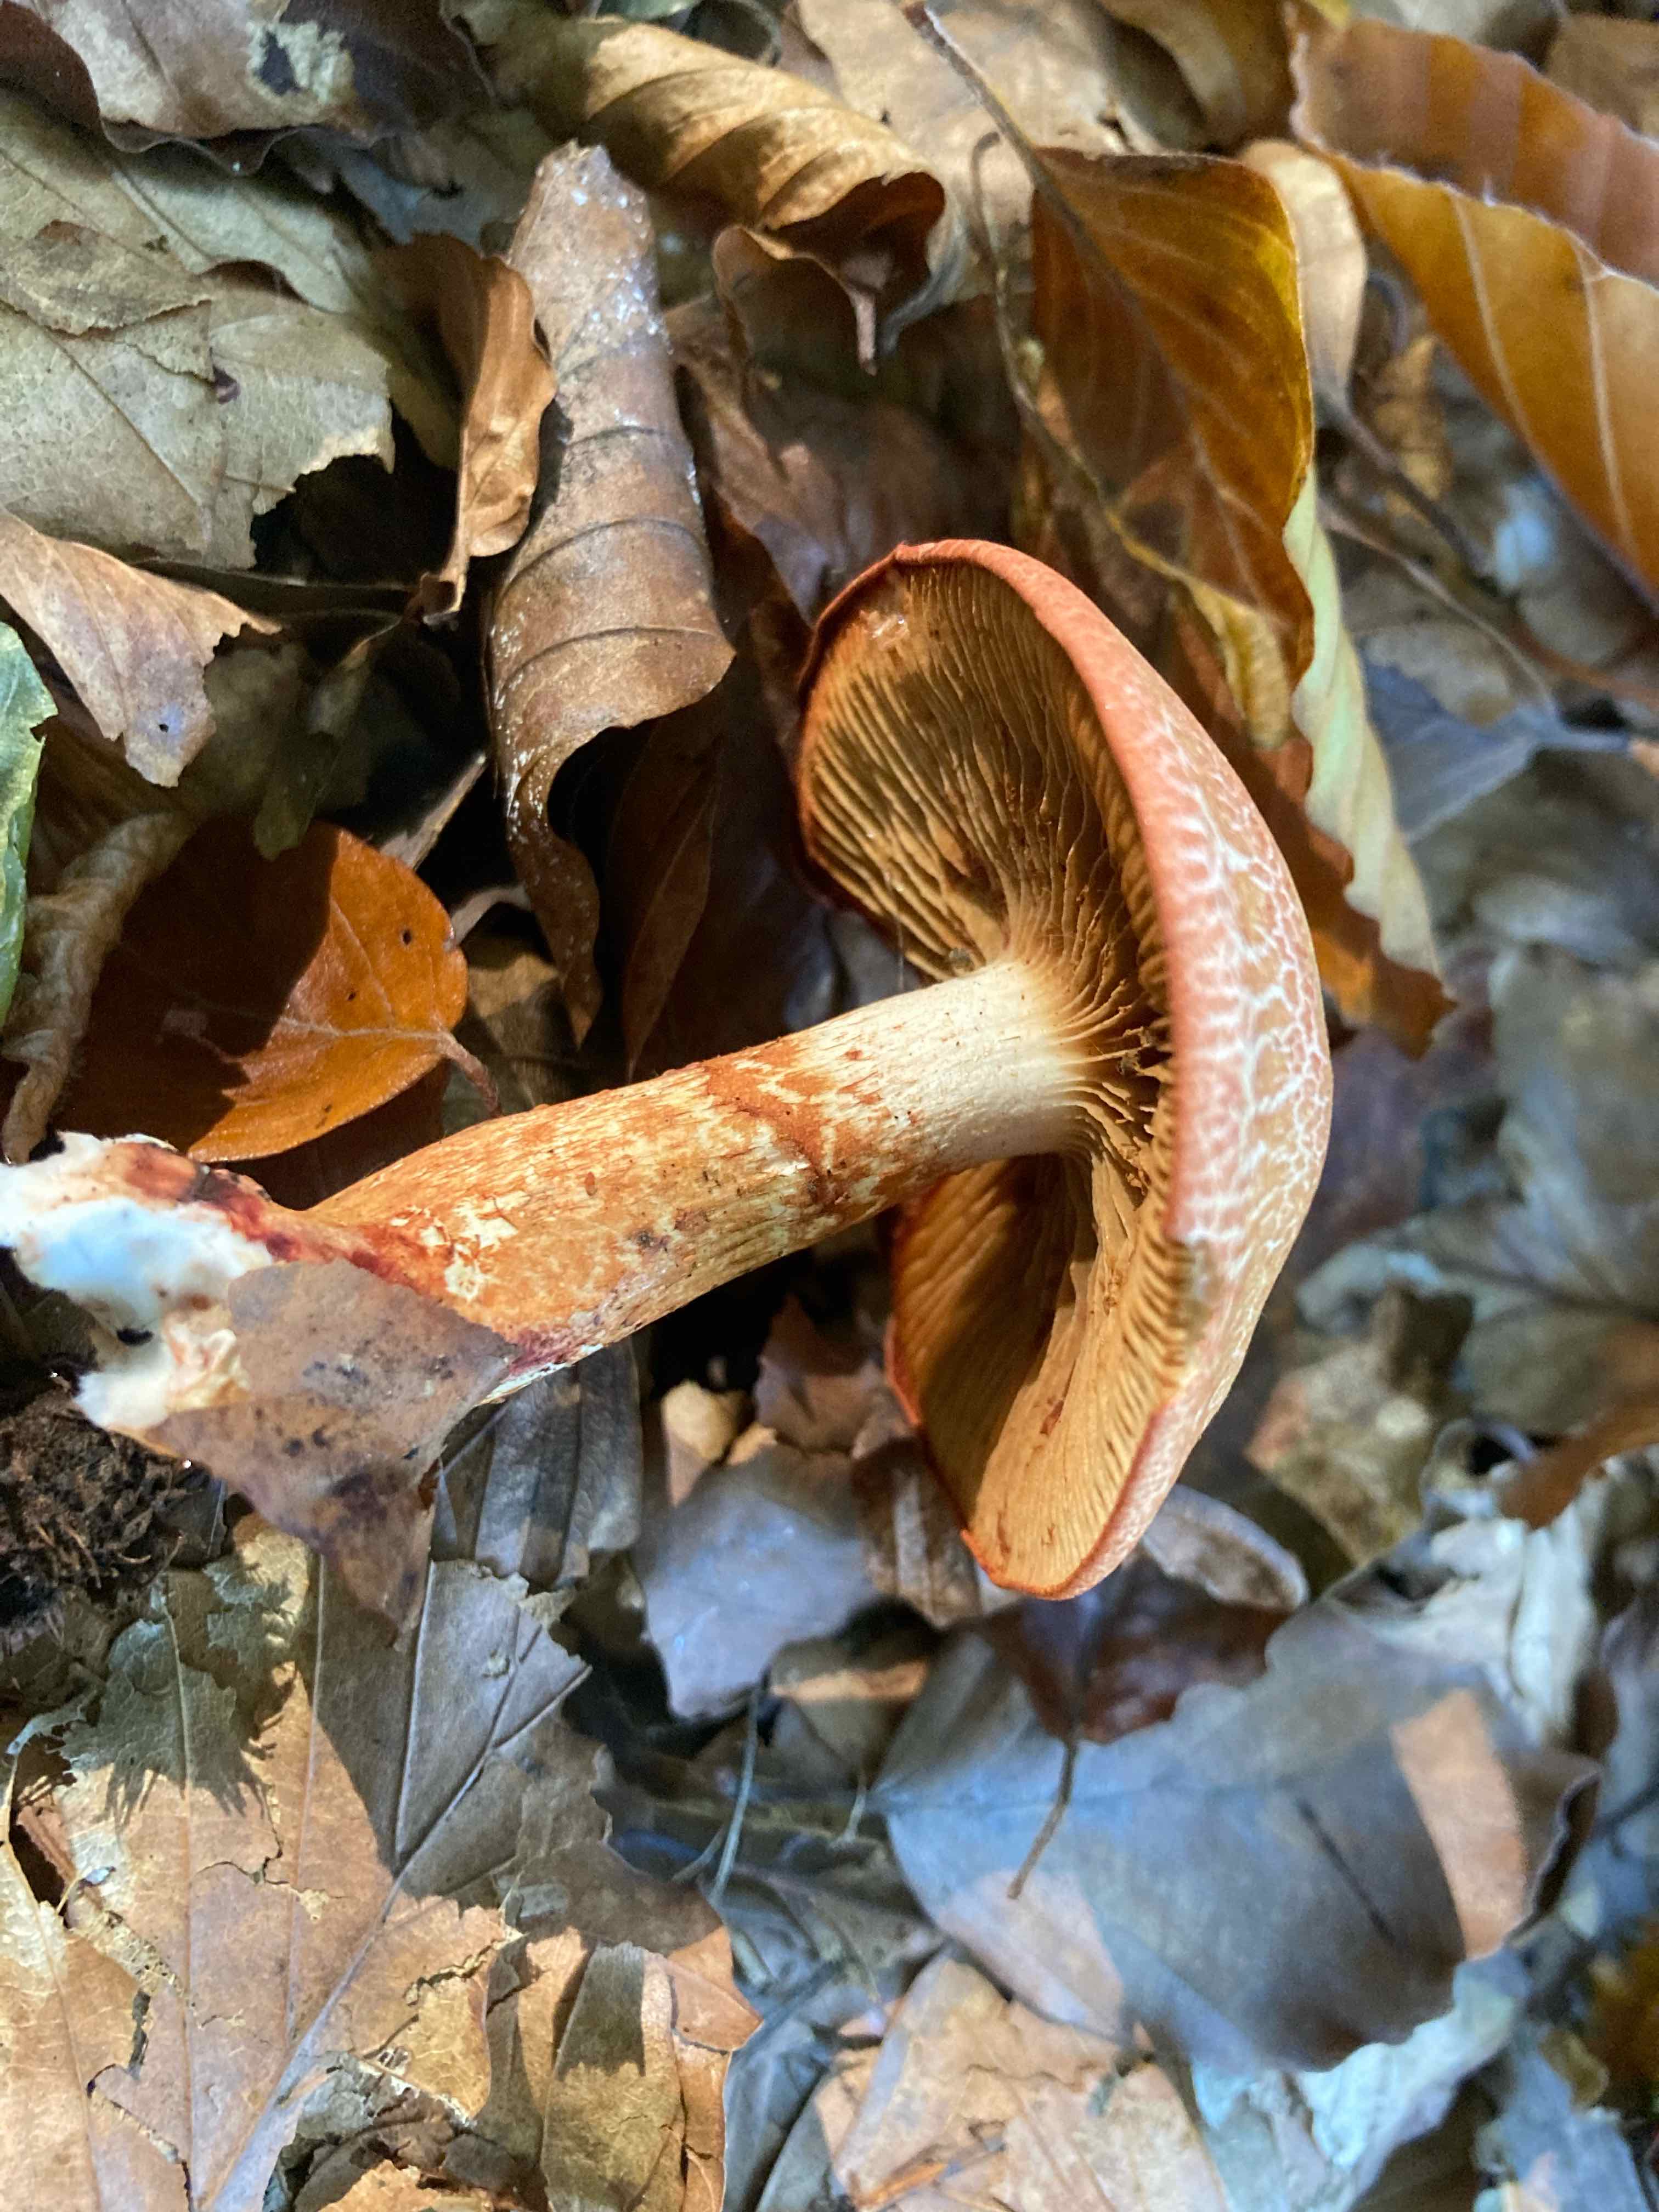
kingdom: Fungi
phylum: Basidiomycota
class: Agaricomycetes
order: Agaricales
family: Cortinariaceae
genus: Cortinarius
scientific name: Cortinarius bolaris
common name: cinnoberskællet slørhat
